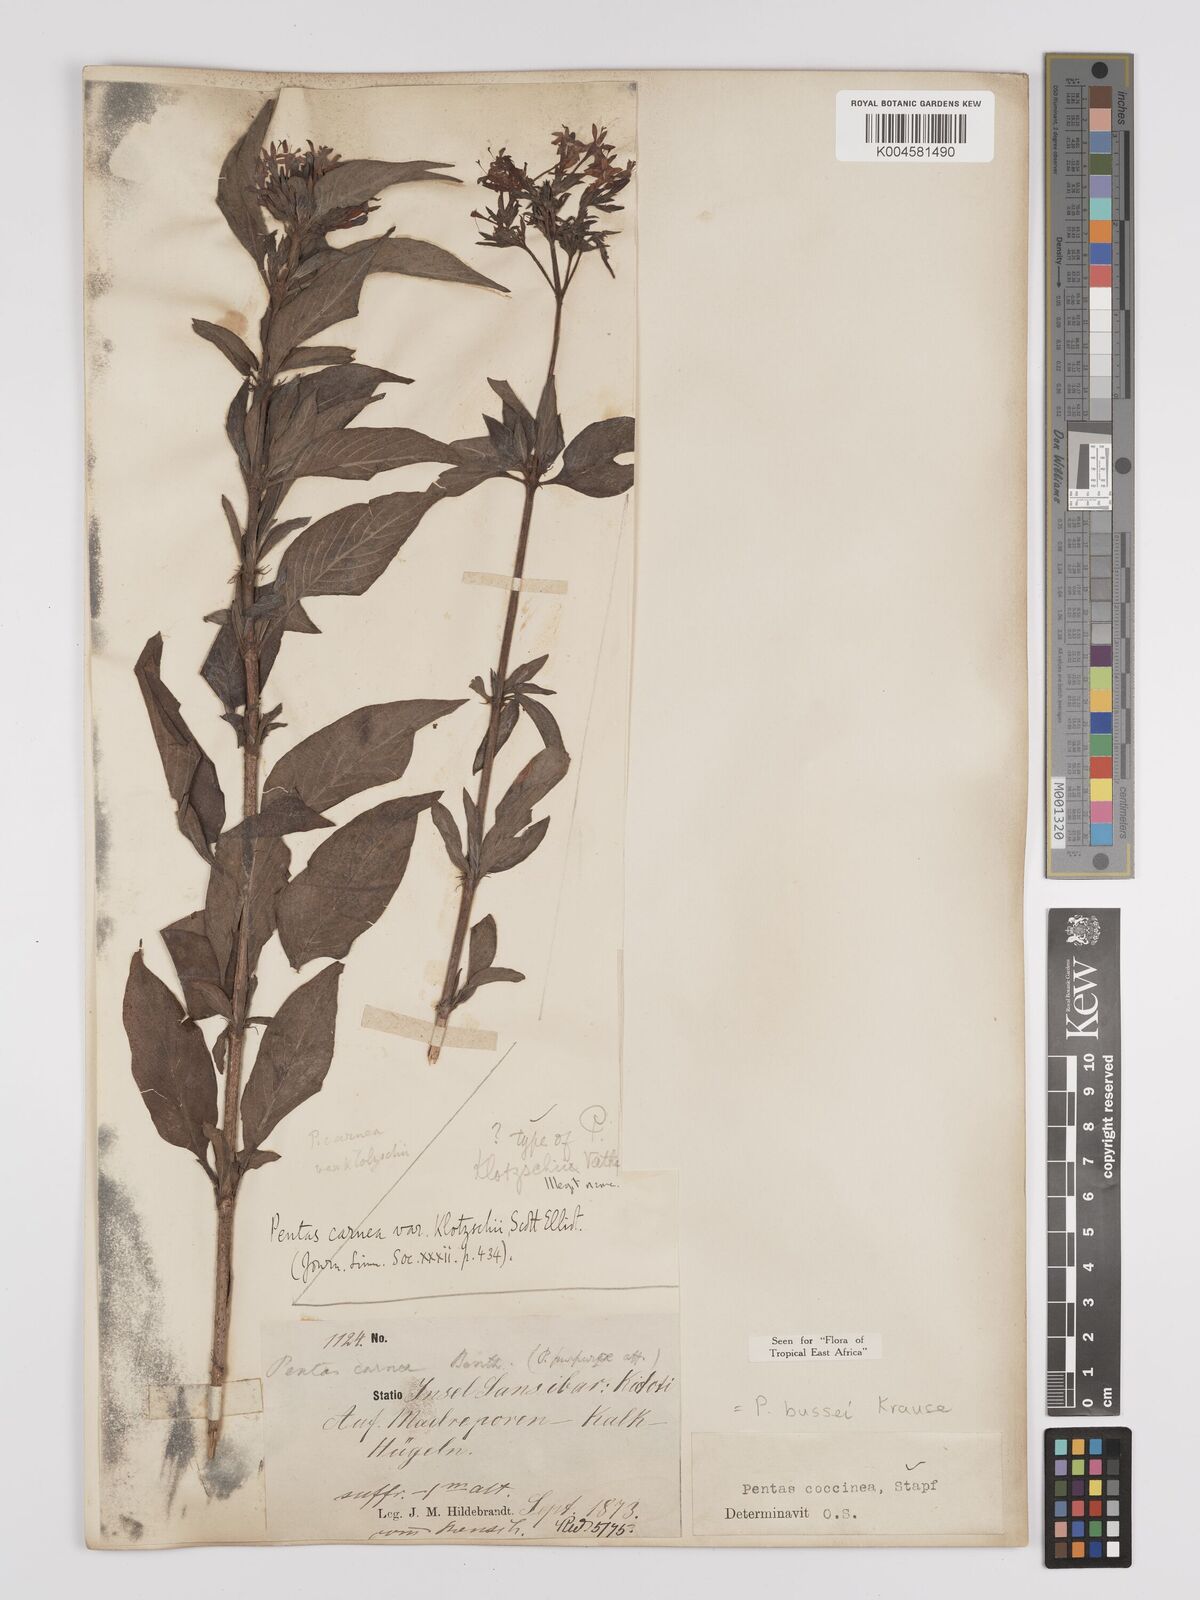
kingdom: Plantae
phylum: Tracheophyta
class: Magnoliopsida
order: Gentianales
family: Rubiaceae
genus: Rhodopentas
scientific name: Rhodopentas bussei
